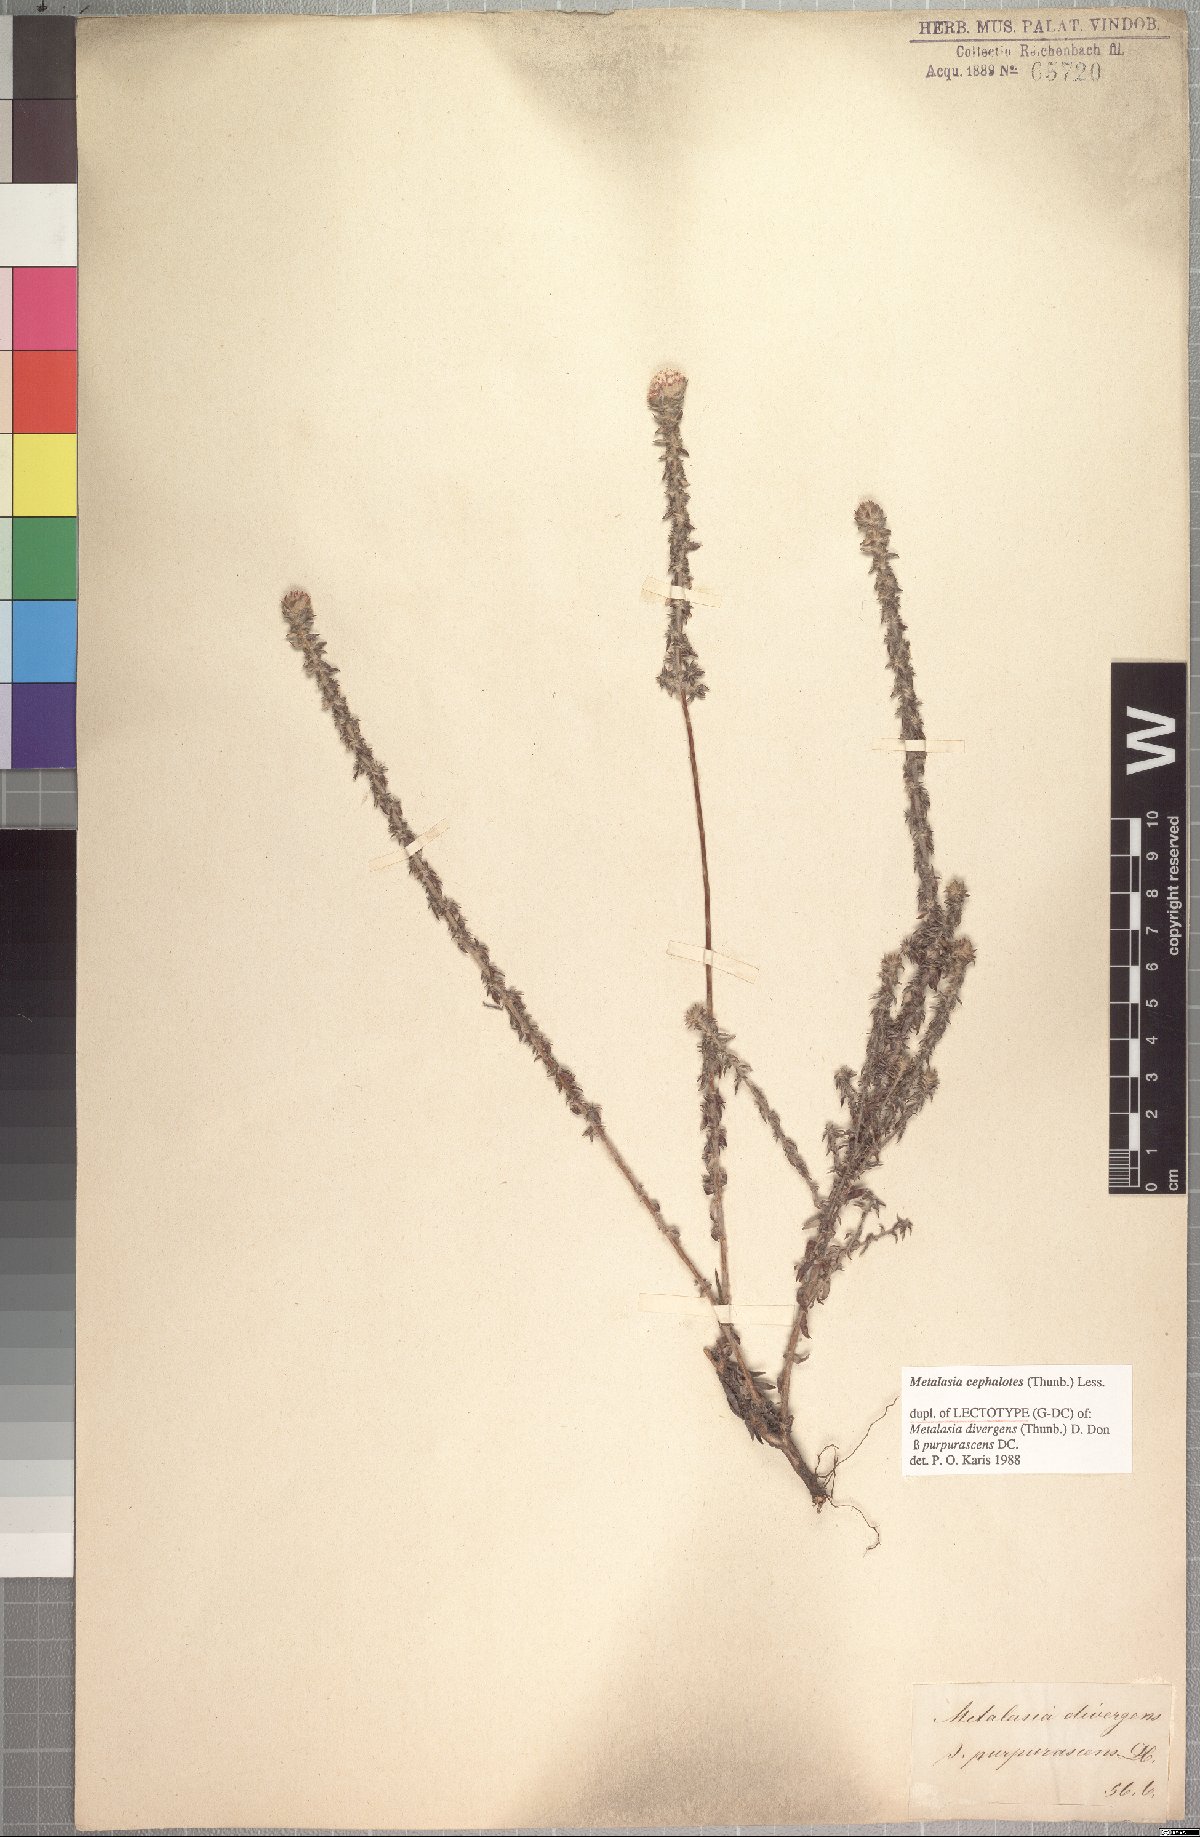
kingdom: Plantae
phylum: Tracheophyta
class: Magnoliopsida
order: Asterales
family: Asteraceae
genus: Metalasia
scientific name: Metalasia cephalotes
